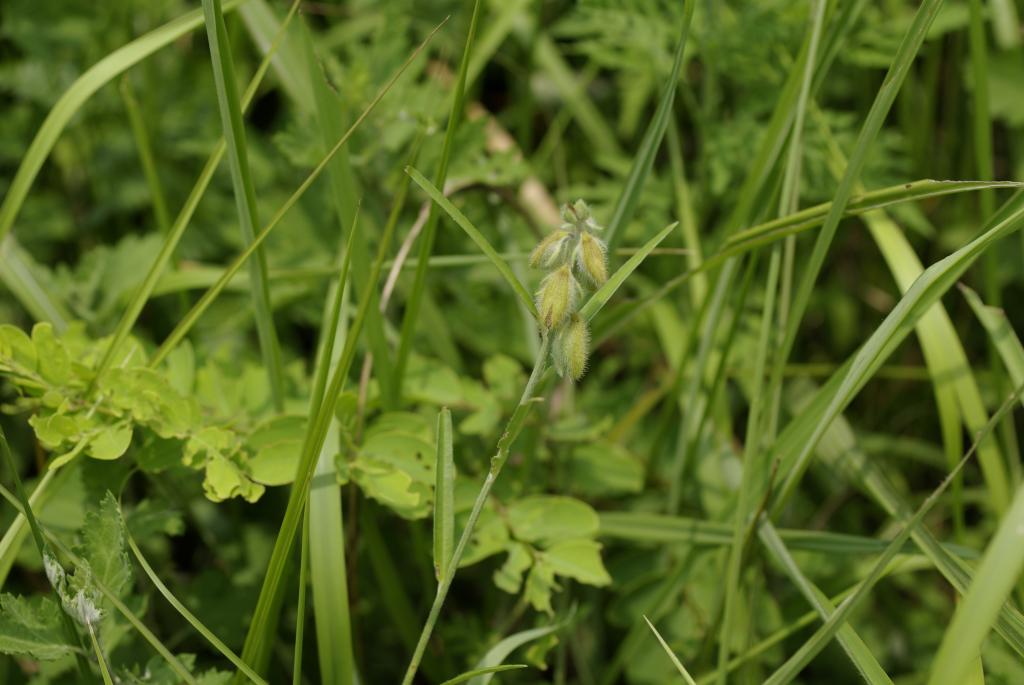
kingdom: Plantae
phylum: Tracheophyta
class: Magnoliopsida
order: Fabales
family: Fabaceae
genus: Crotalaria
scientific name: Crotalaria sessiliflora
